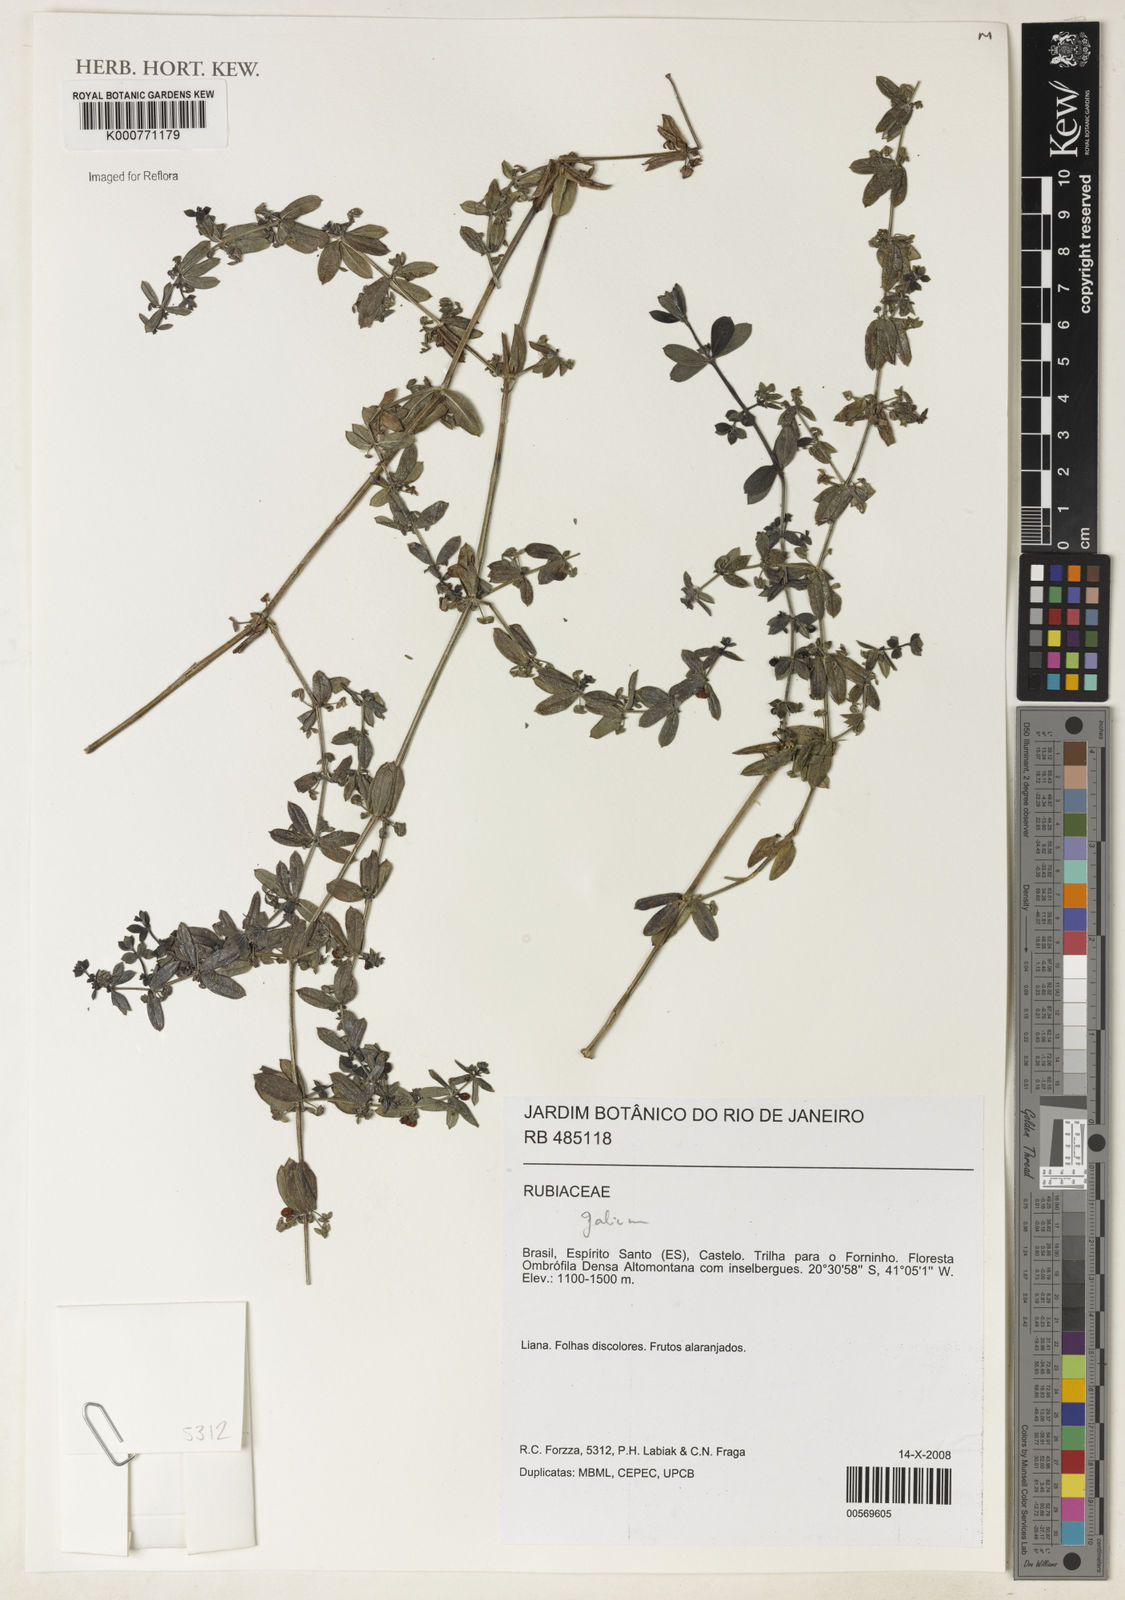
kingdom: Plantae
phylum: Tracheophyta
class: Magnoliopsida
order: Gentianales
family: Rubiaceae
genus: Galium
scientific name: Galium
